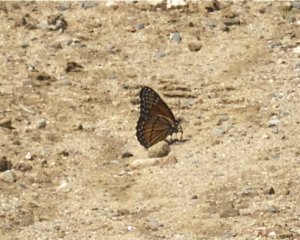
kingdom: Animalia
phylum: Arthropoda
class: Insecta
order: Lepidoptera
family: Nymphalidae
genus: Limenitis
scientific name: Limenitis archippus
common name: Viceroy
